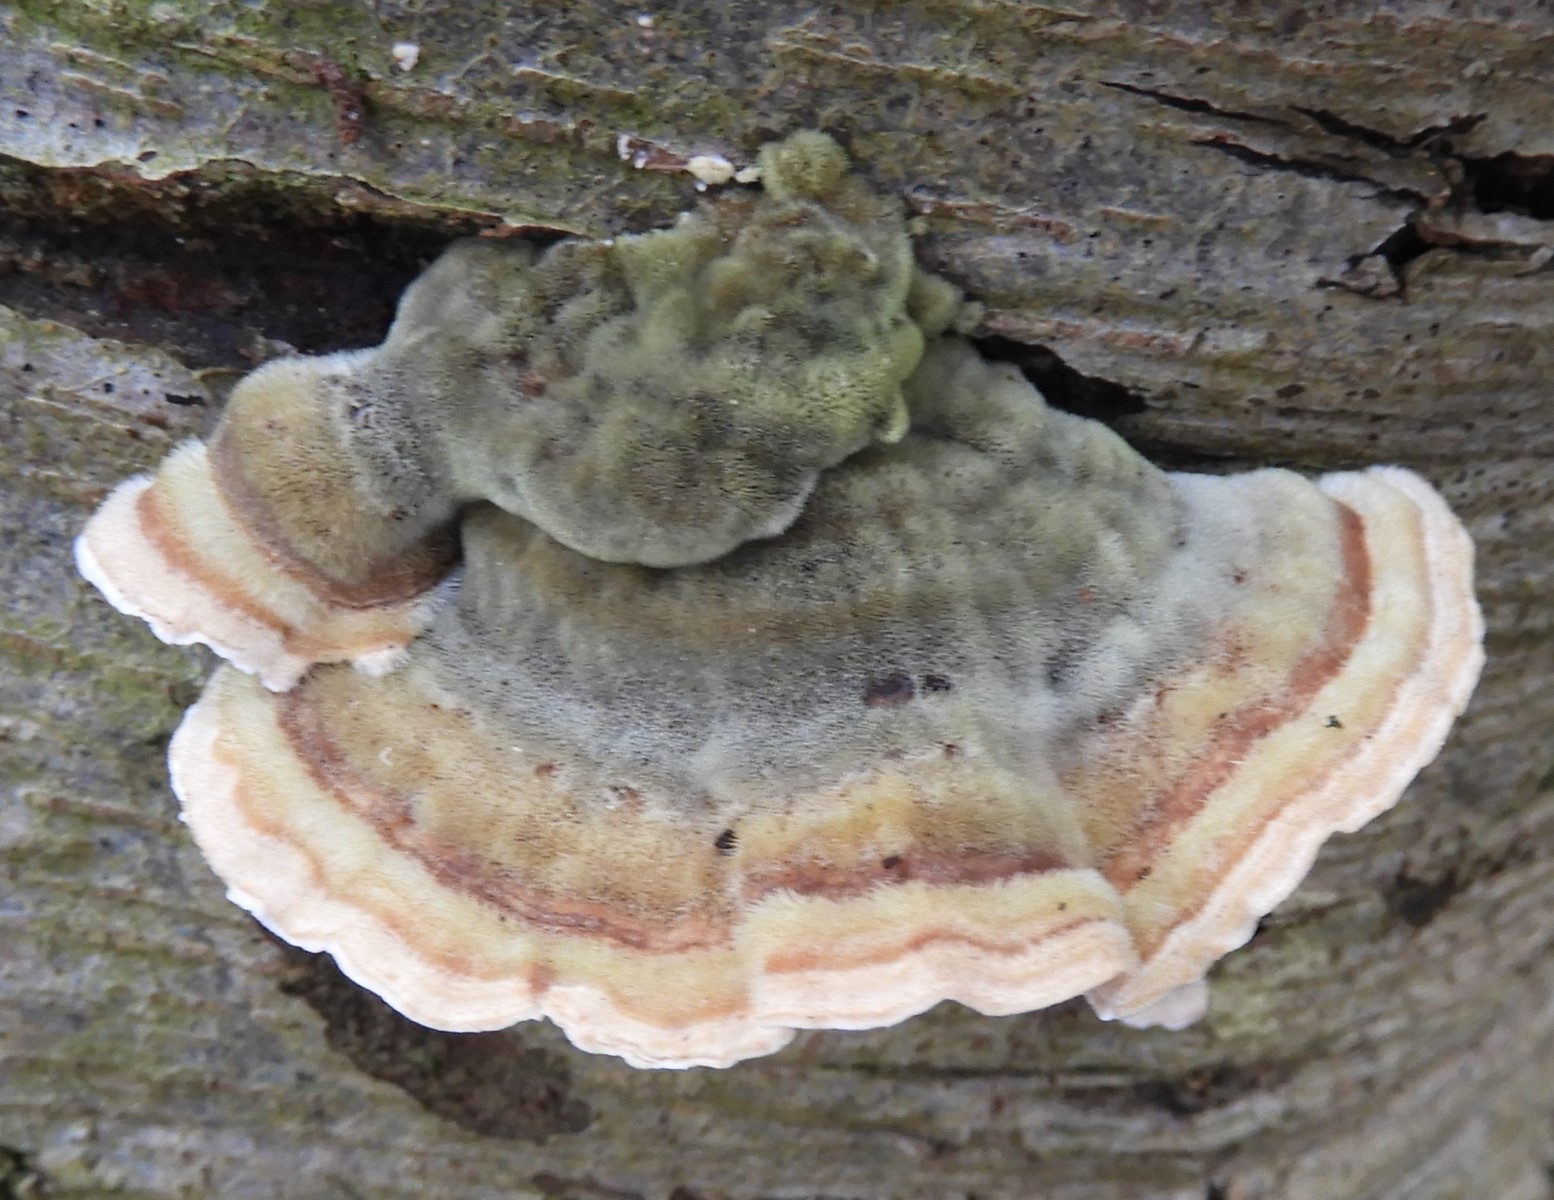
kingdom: Fungi
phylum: Basidiomycota
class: Agaricomycetes
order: Polyporales
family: Polyporaceae
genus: Trametes
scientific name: Trametes ochracea
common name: bæltet læderporesvamp
